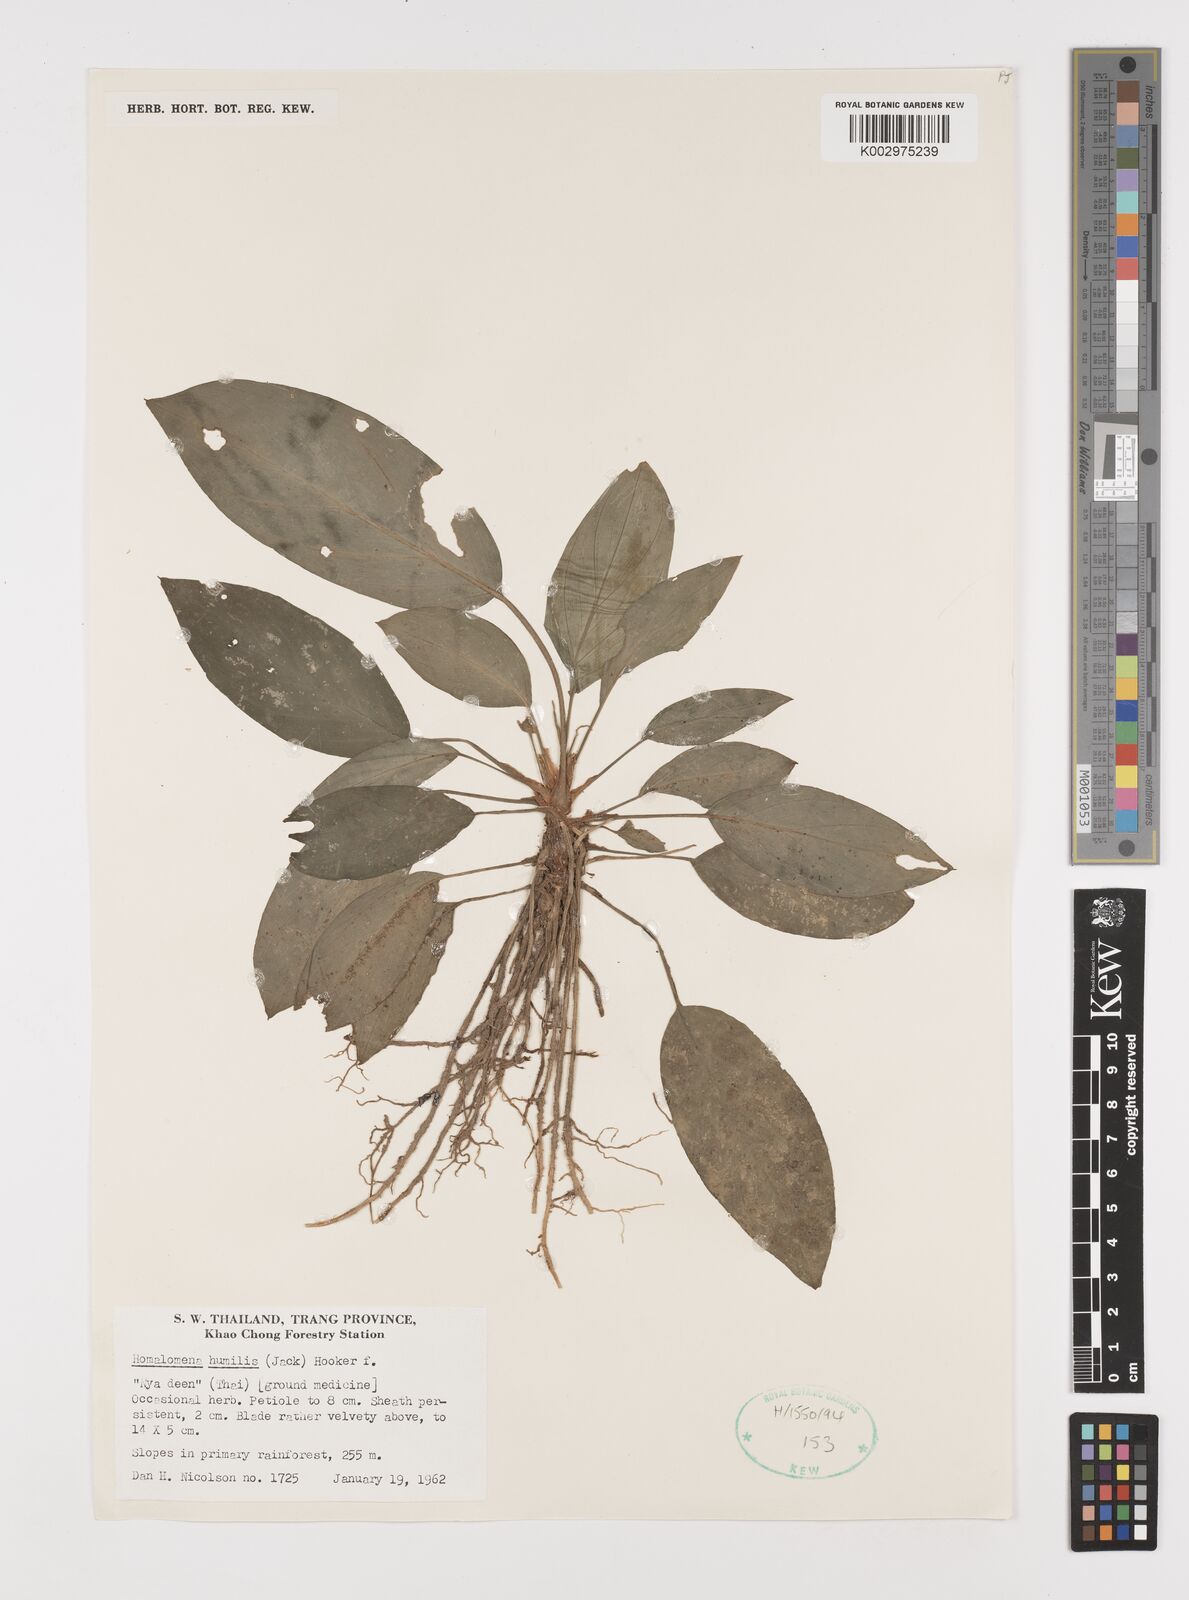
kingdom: Plantae
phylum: Tracheophyta
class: Liliopsida
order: Alismatales
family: Araceae
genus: Homalomena
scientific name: Homalomena humilis
